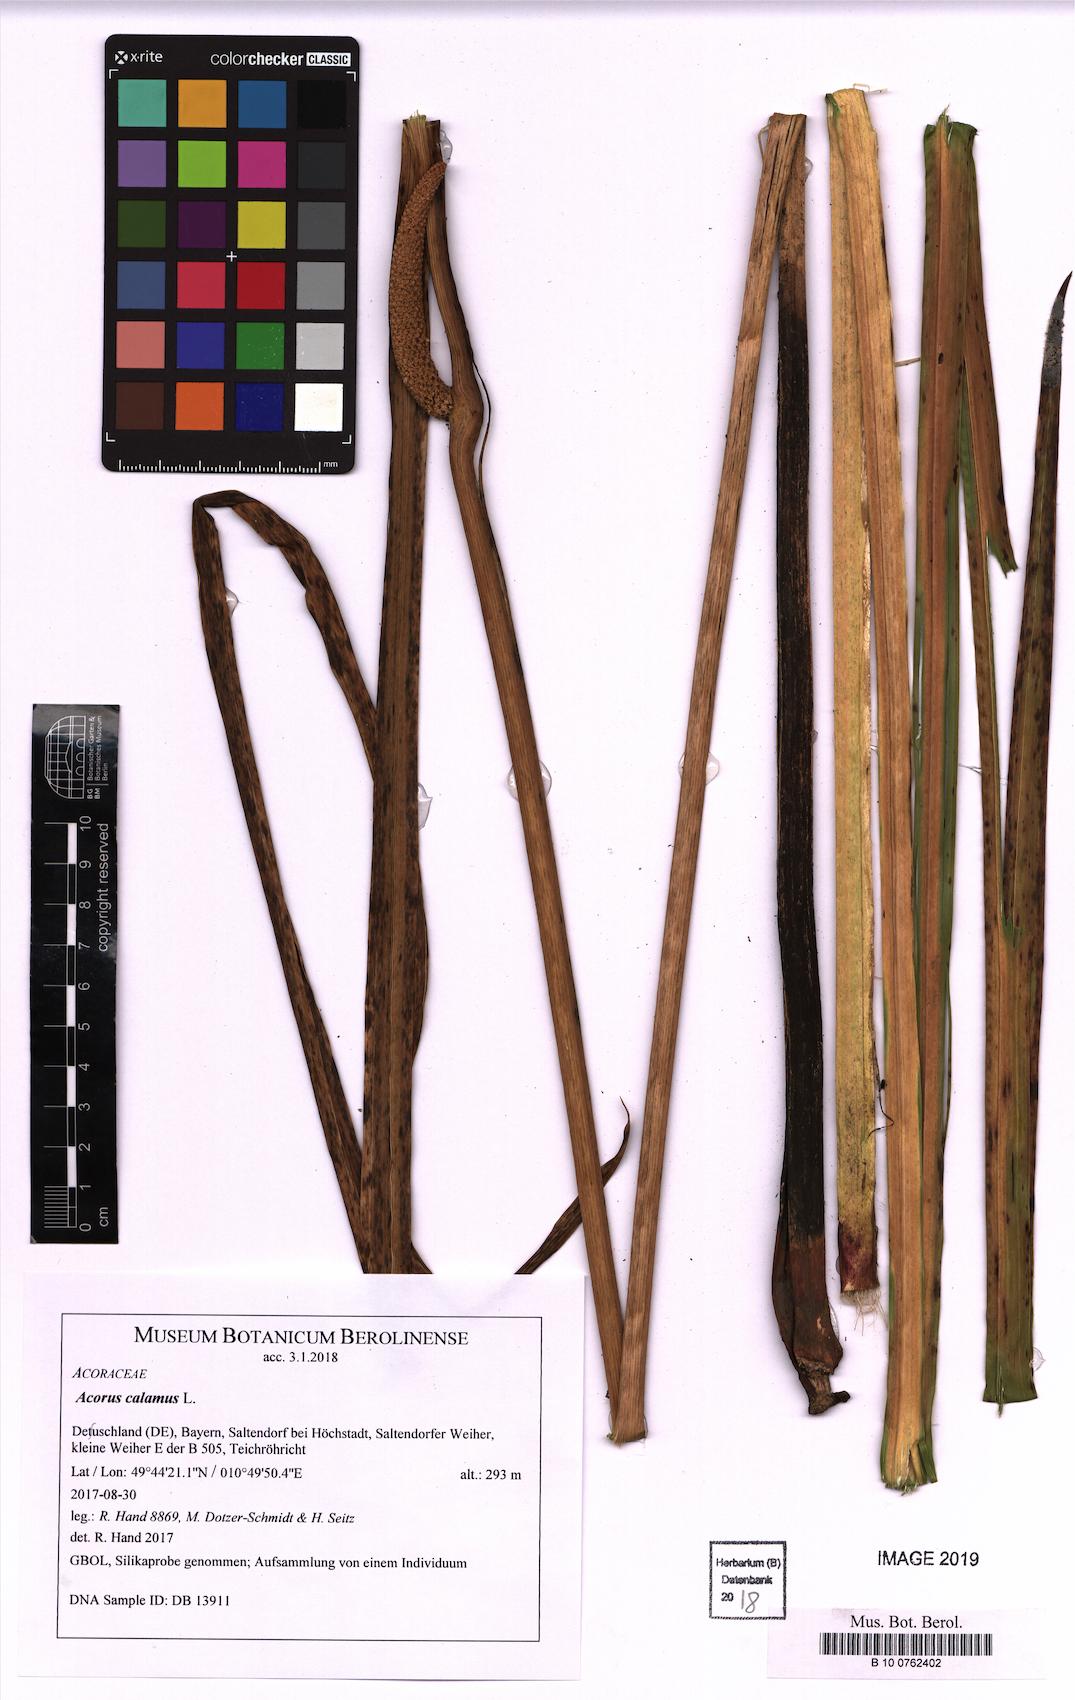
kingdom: Plantae
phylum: Tracheophyta
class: Liliopsida
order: Acorales
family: Acoraceae
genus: Acorus
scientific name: Acorus calamus
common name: Sweet-flag
